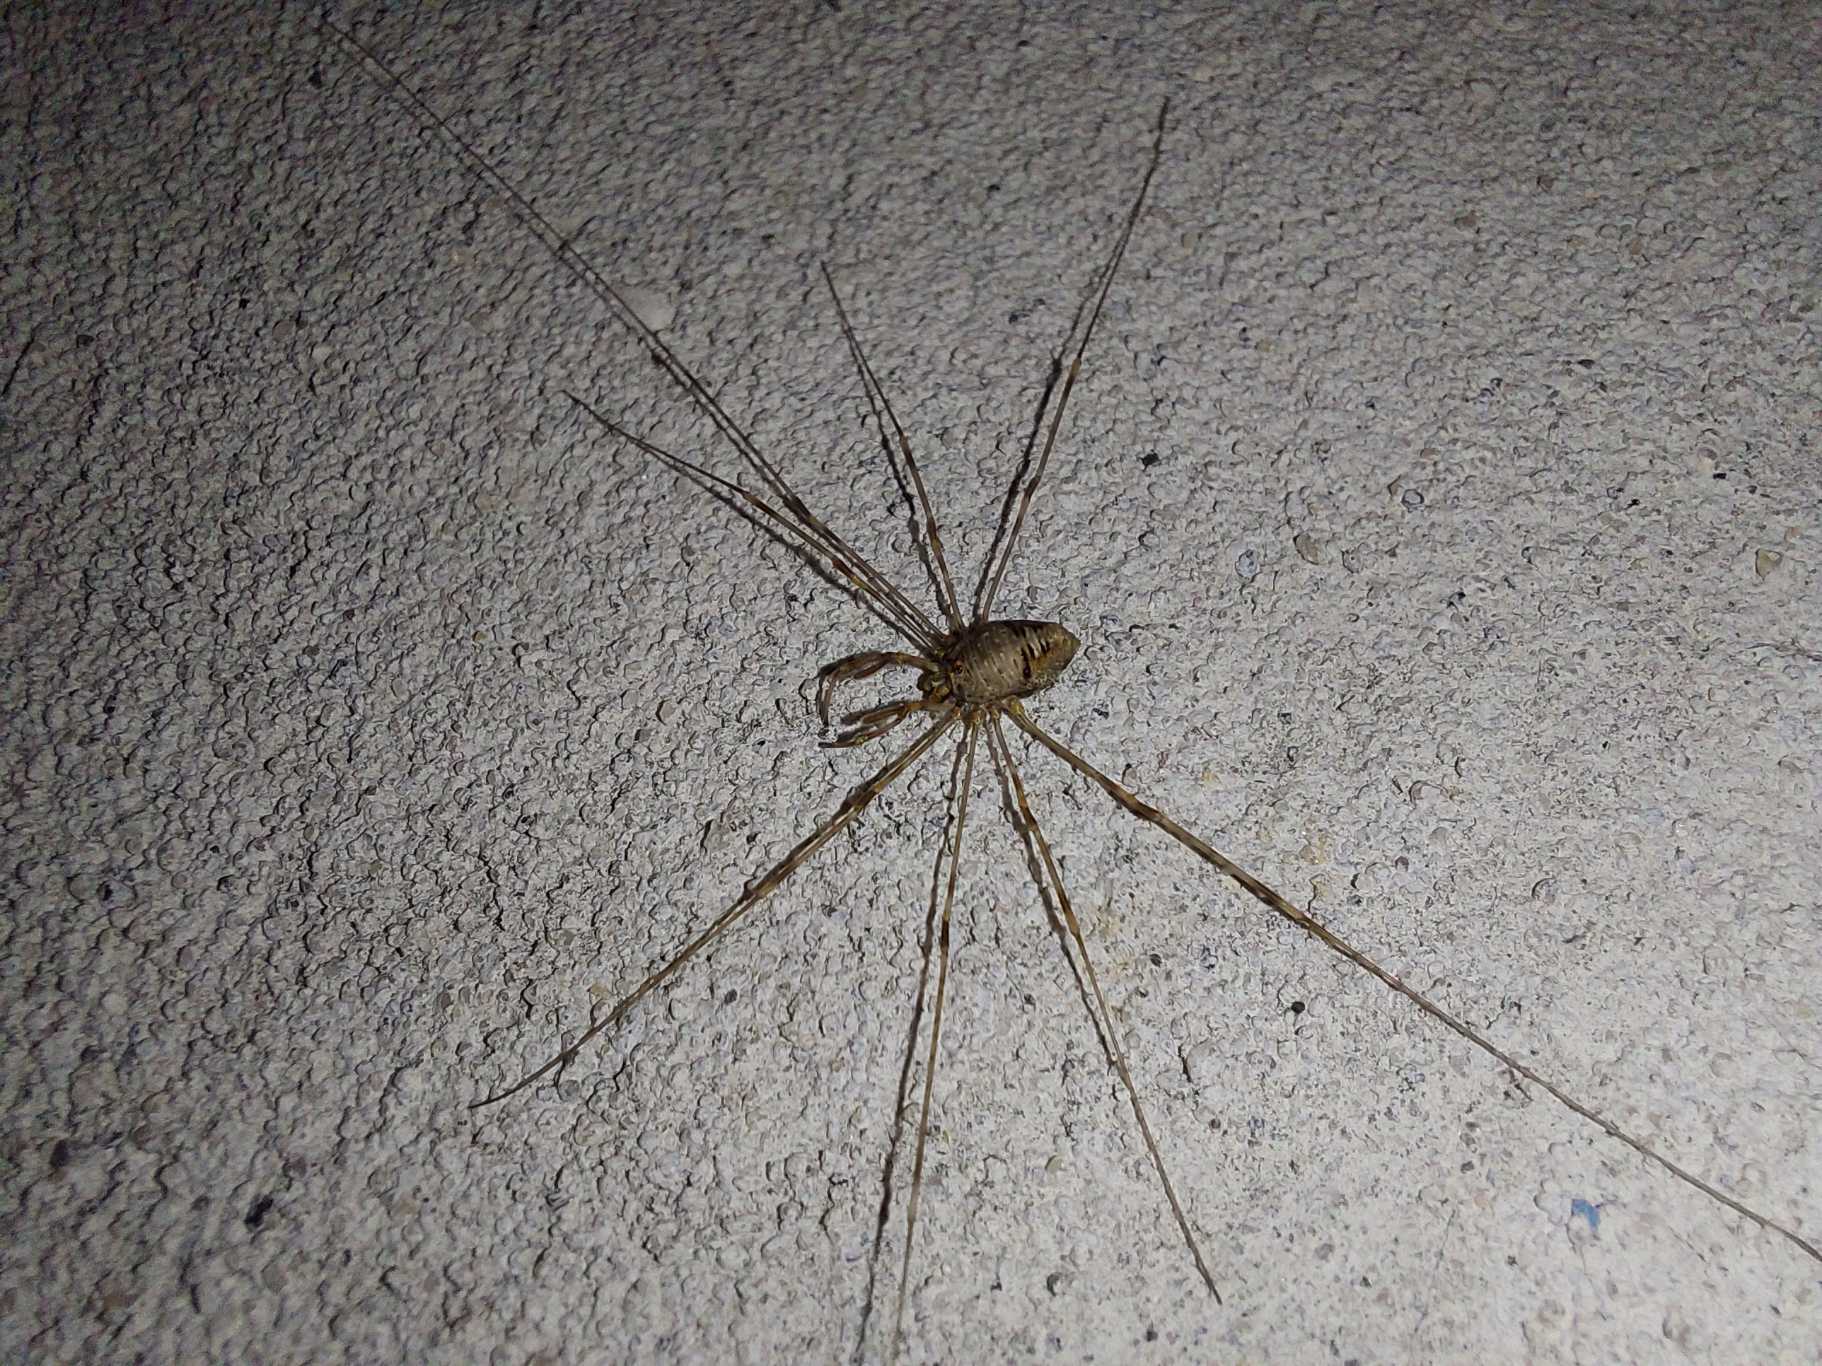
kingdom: Animalia
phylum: Arthropoda
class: Arachnida
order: Opiliones
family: Phalangiidae
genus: Dicranopalpus
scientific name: Dicranopalpus ramosus
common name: Gaffelmejer
